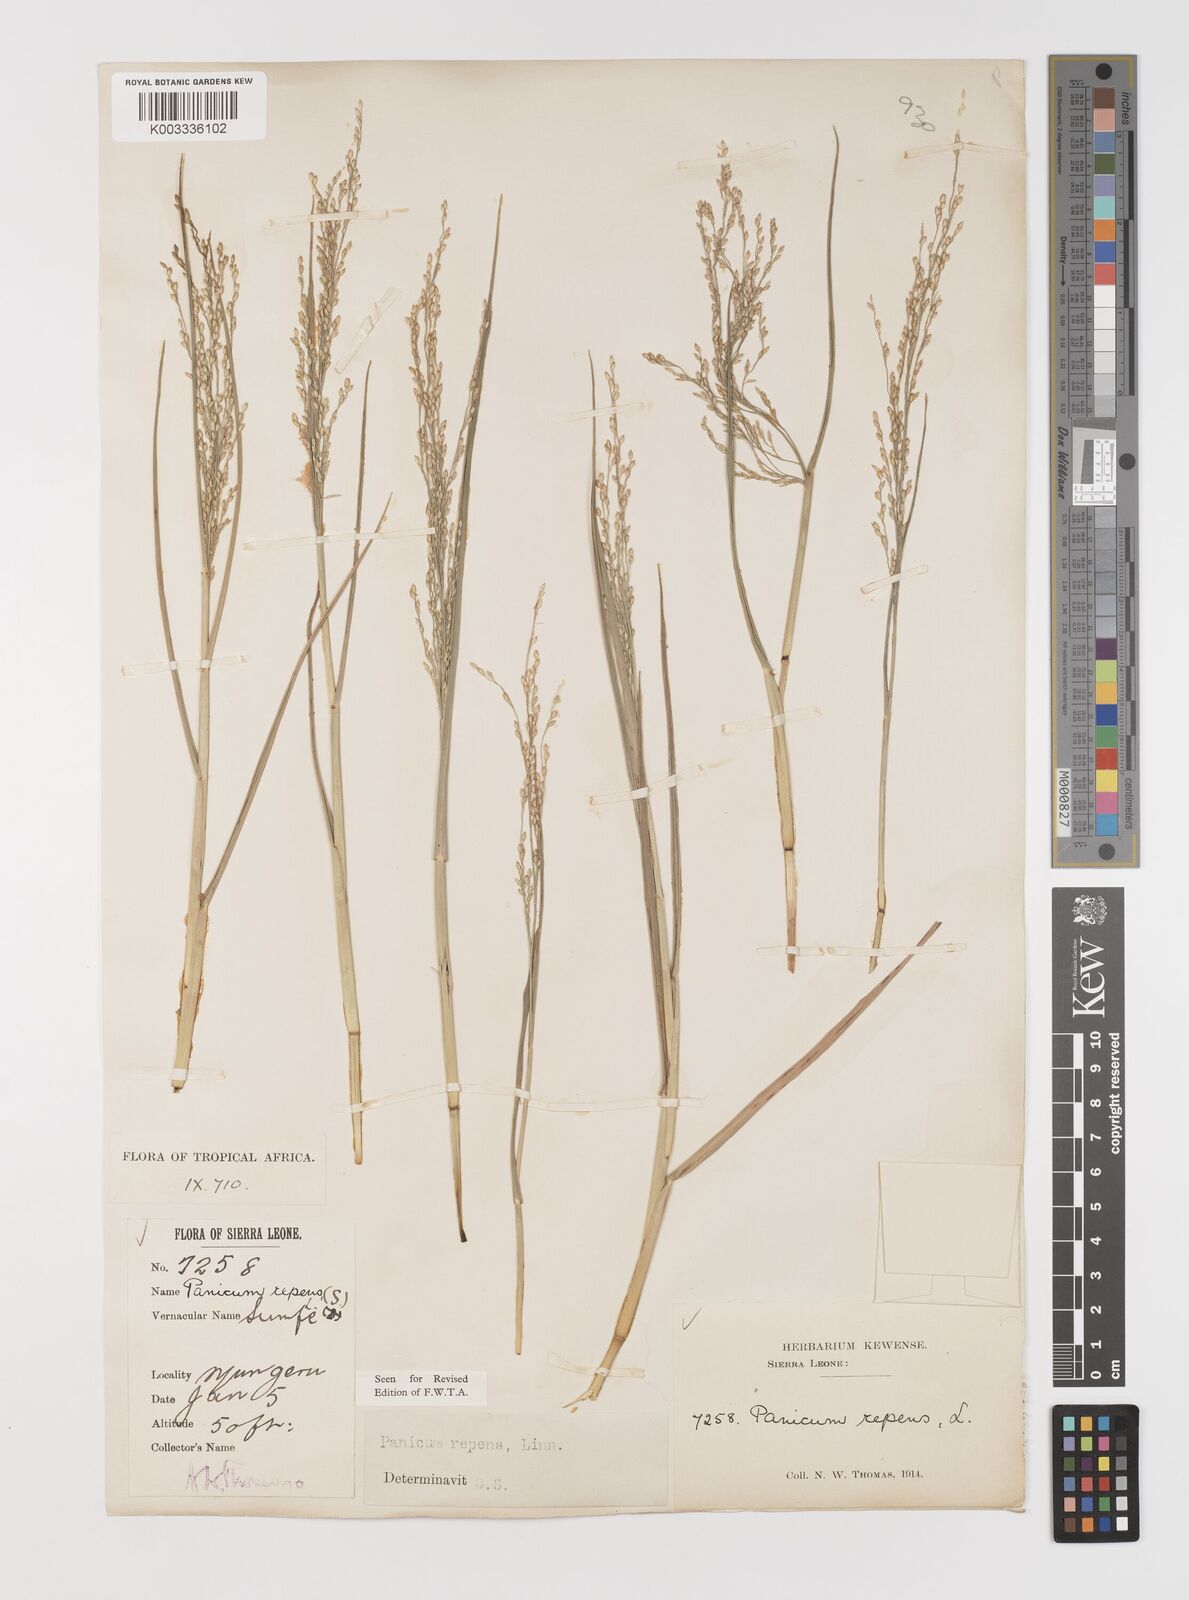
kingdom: Plantae
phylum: Tracheophyta
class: Liliopsida
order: Poales
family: Poaceae
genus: Panicum
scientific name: Panicum repens
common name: Torpedo grass
